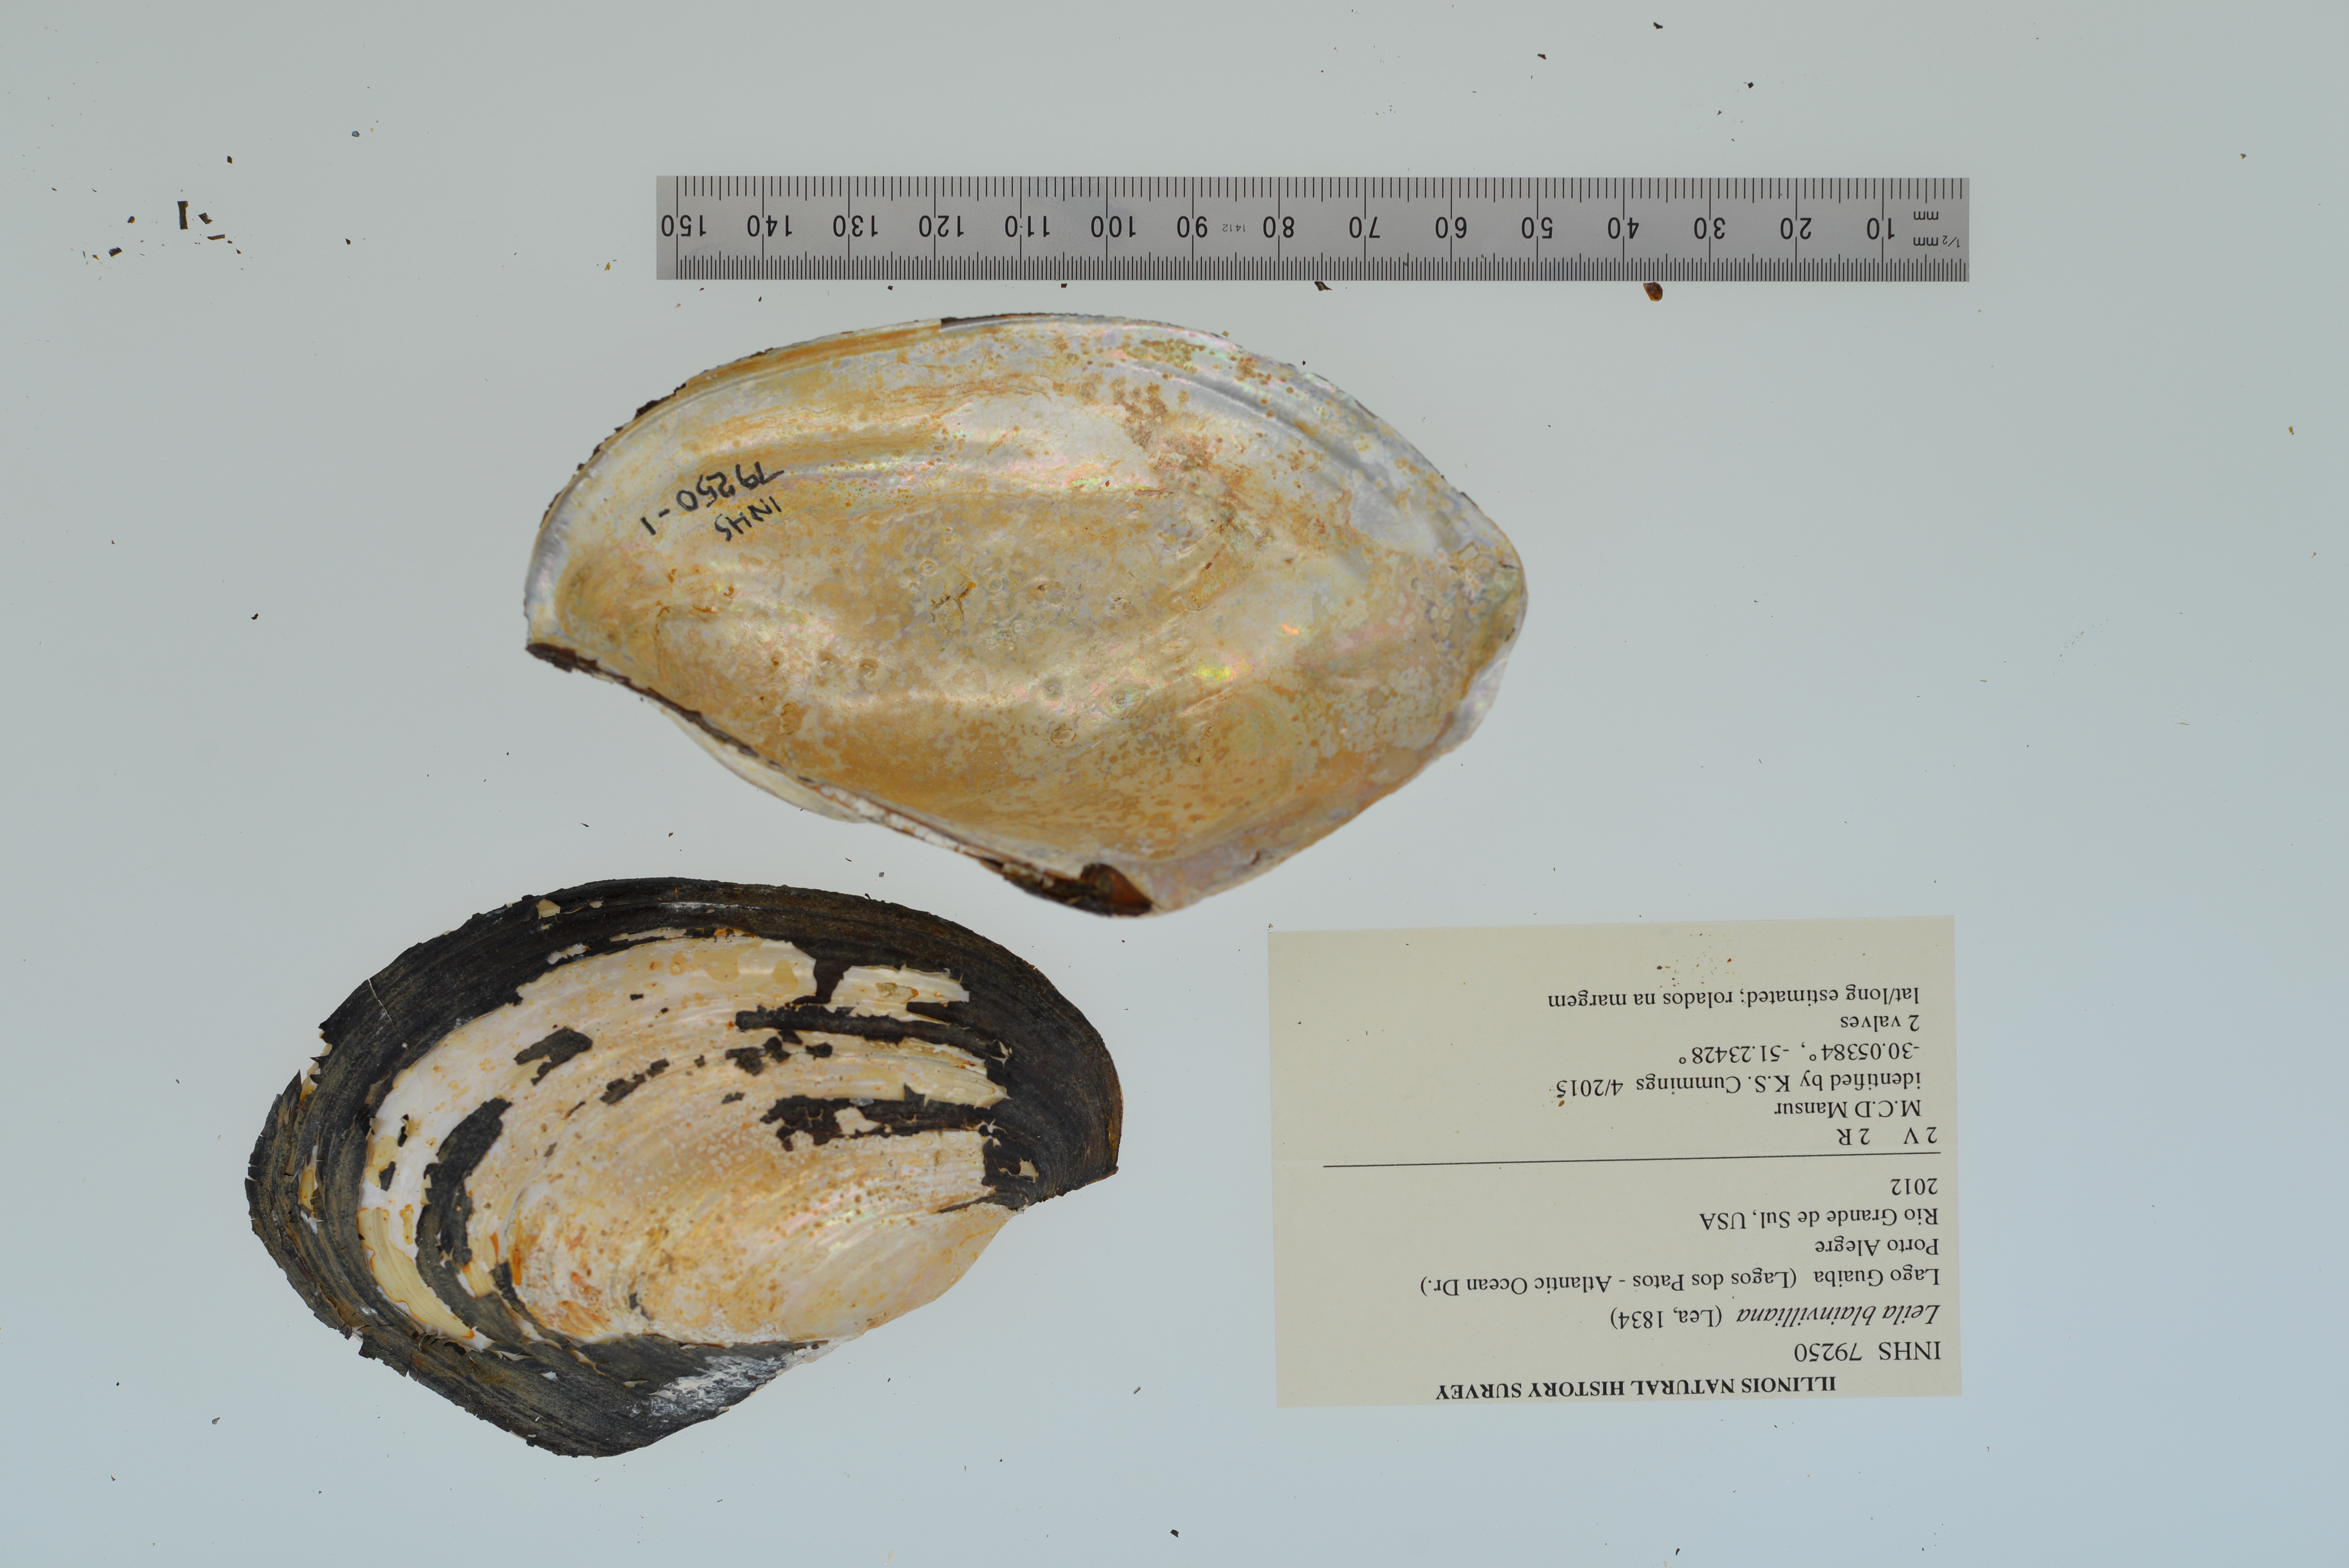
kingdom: Animalia
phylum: Mollusca
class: Bivalvia
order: Unionida
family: Mycetopodidae
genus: Leila
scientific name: Leila blainvilliana
